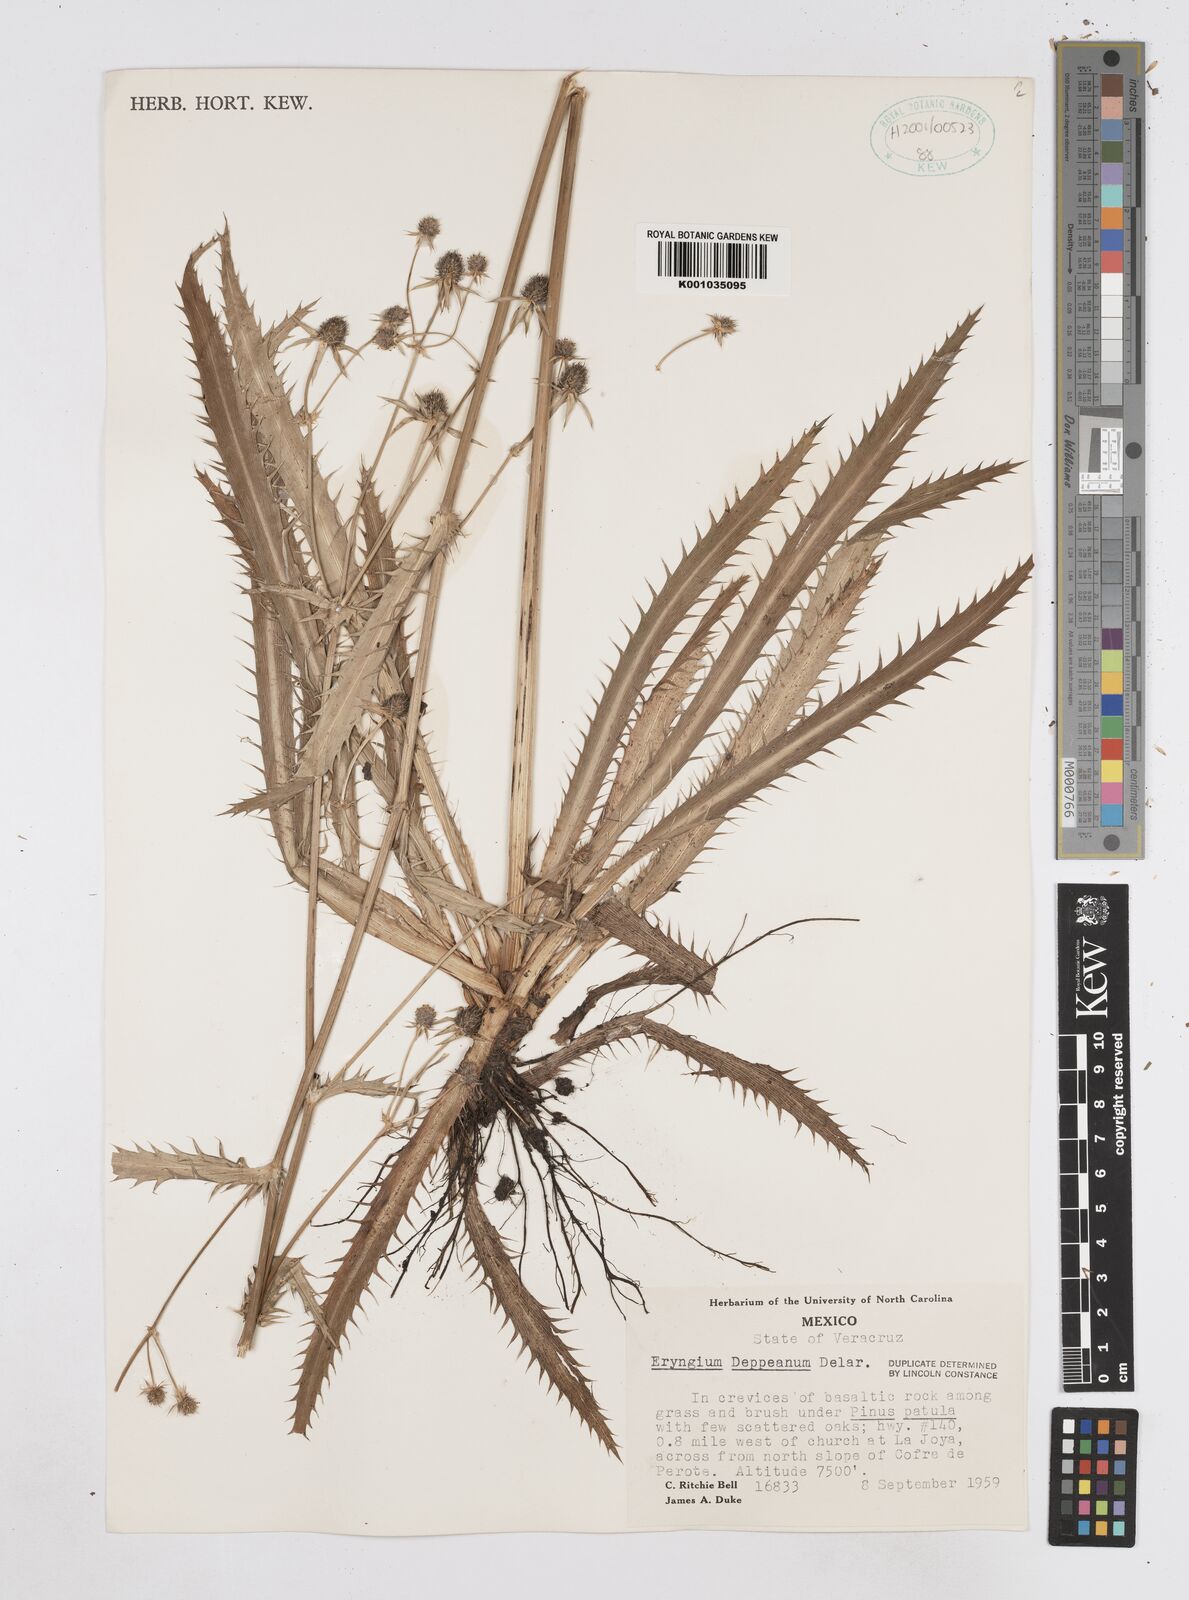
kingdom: Plantae
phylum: Tracheophyta
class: Magnoliopsida
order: Apiales
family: Apiaceae
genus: Eryngium
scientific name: Eryngium deppeanum
